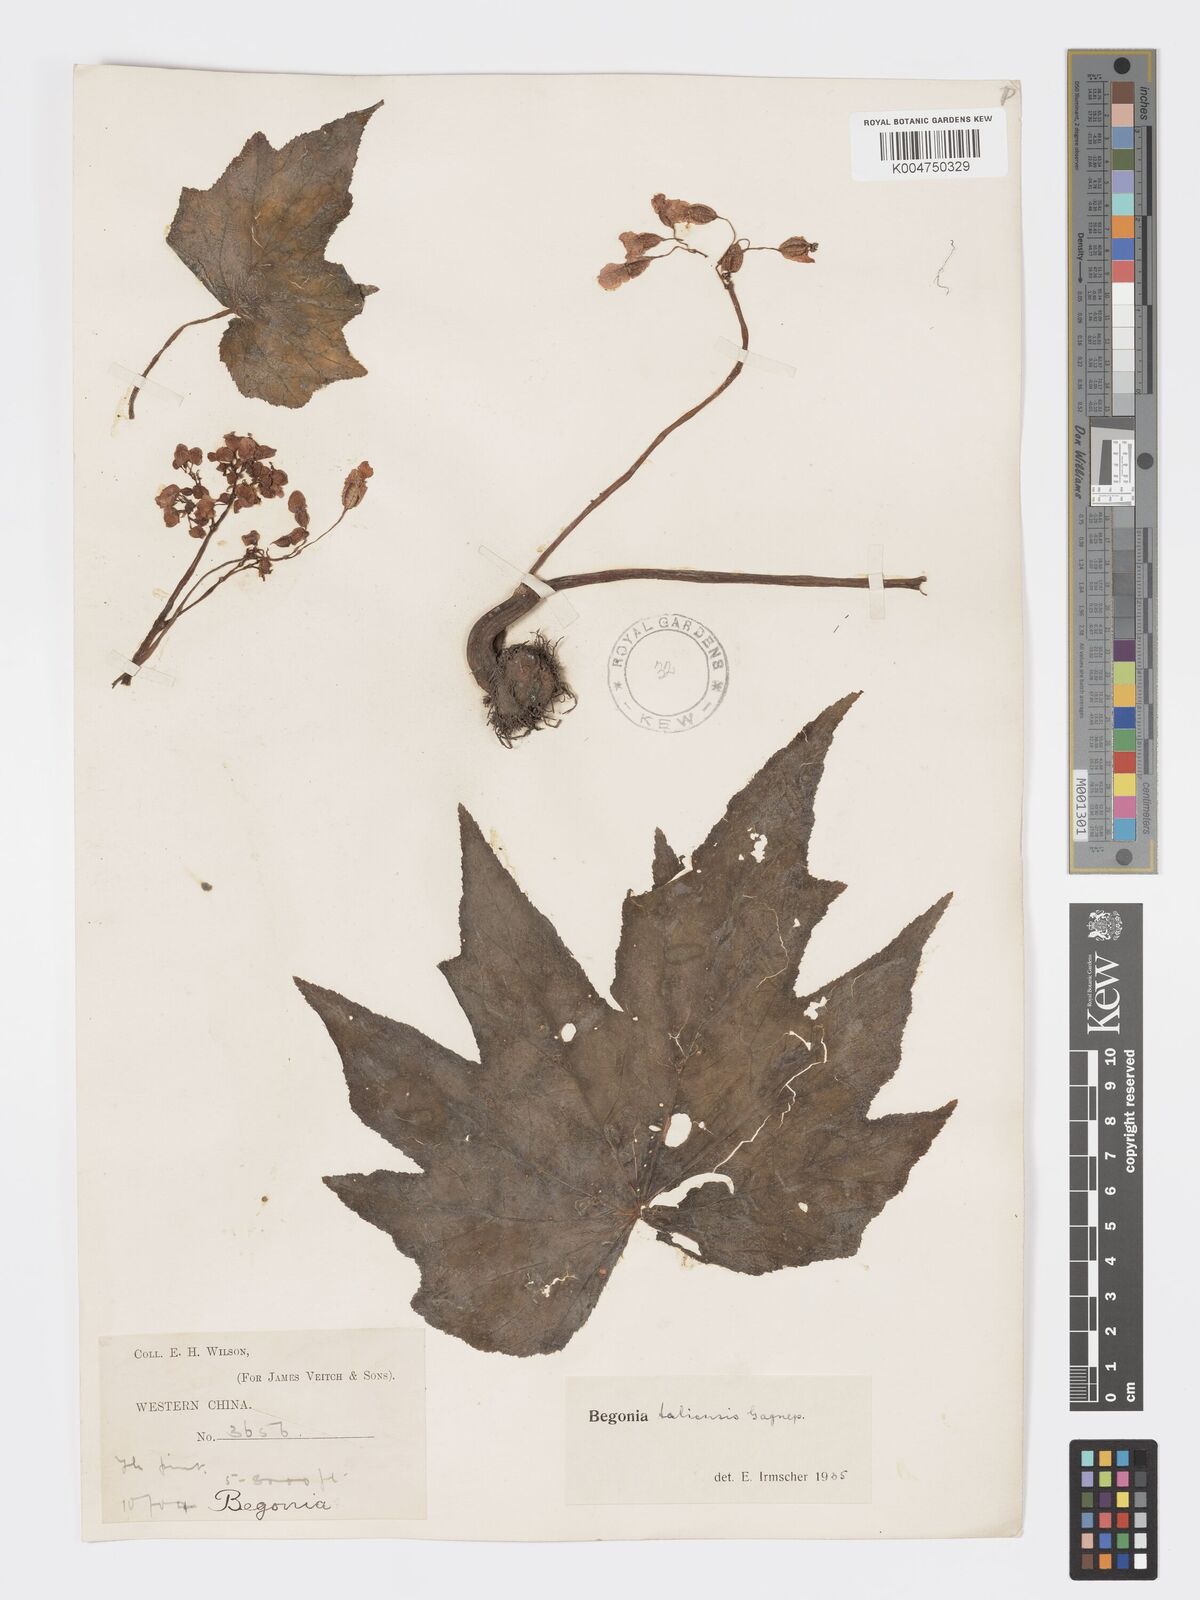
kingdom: Plantae
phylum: Tracheophyta
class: Magnoliopsida
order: Cucurbitales
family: Begoniaceae
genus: Begonia
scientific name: Begonia taliensis
